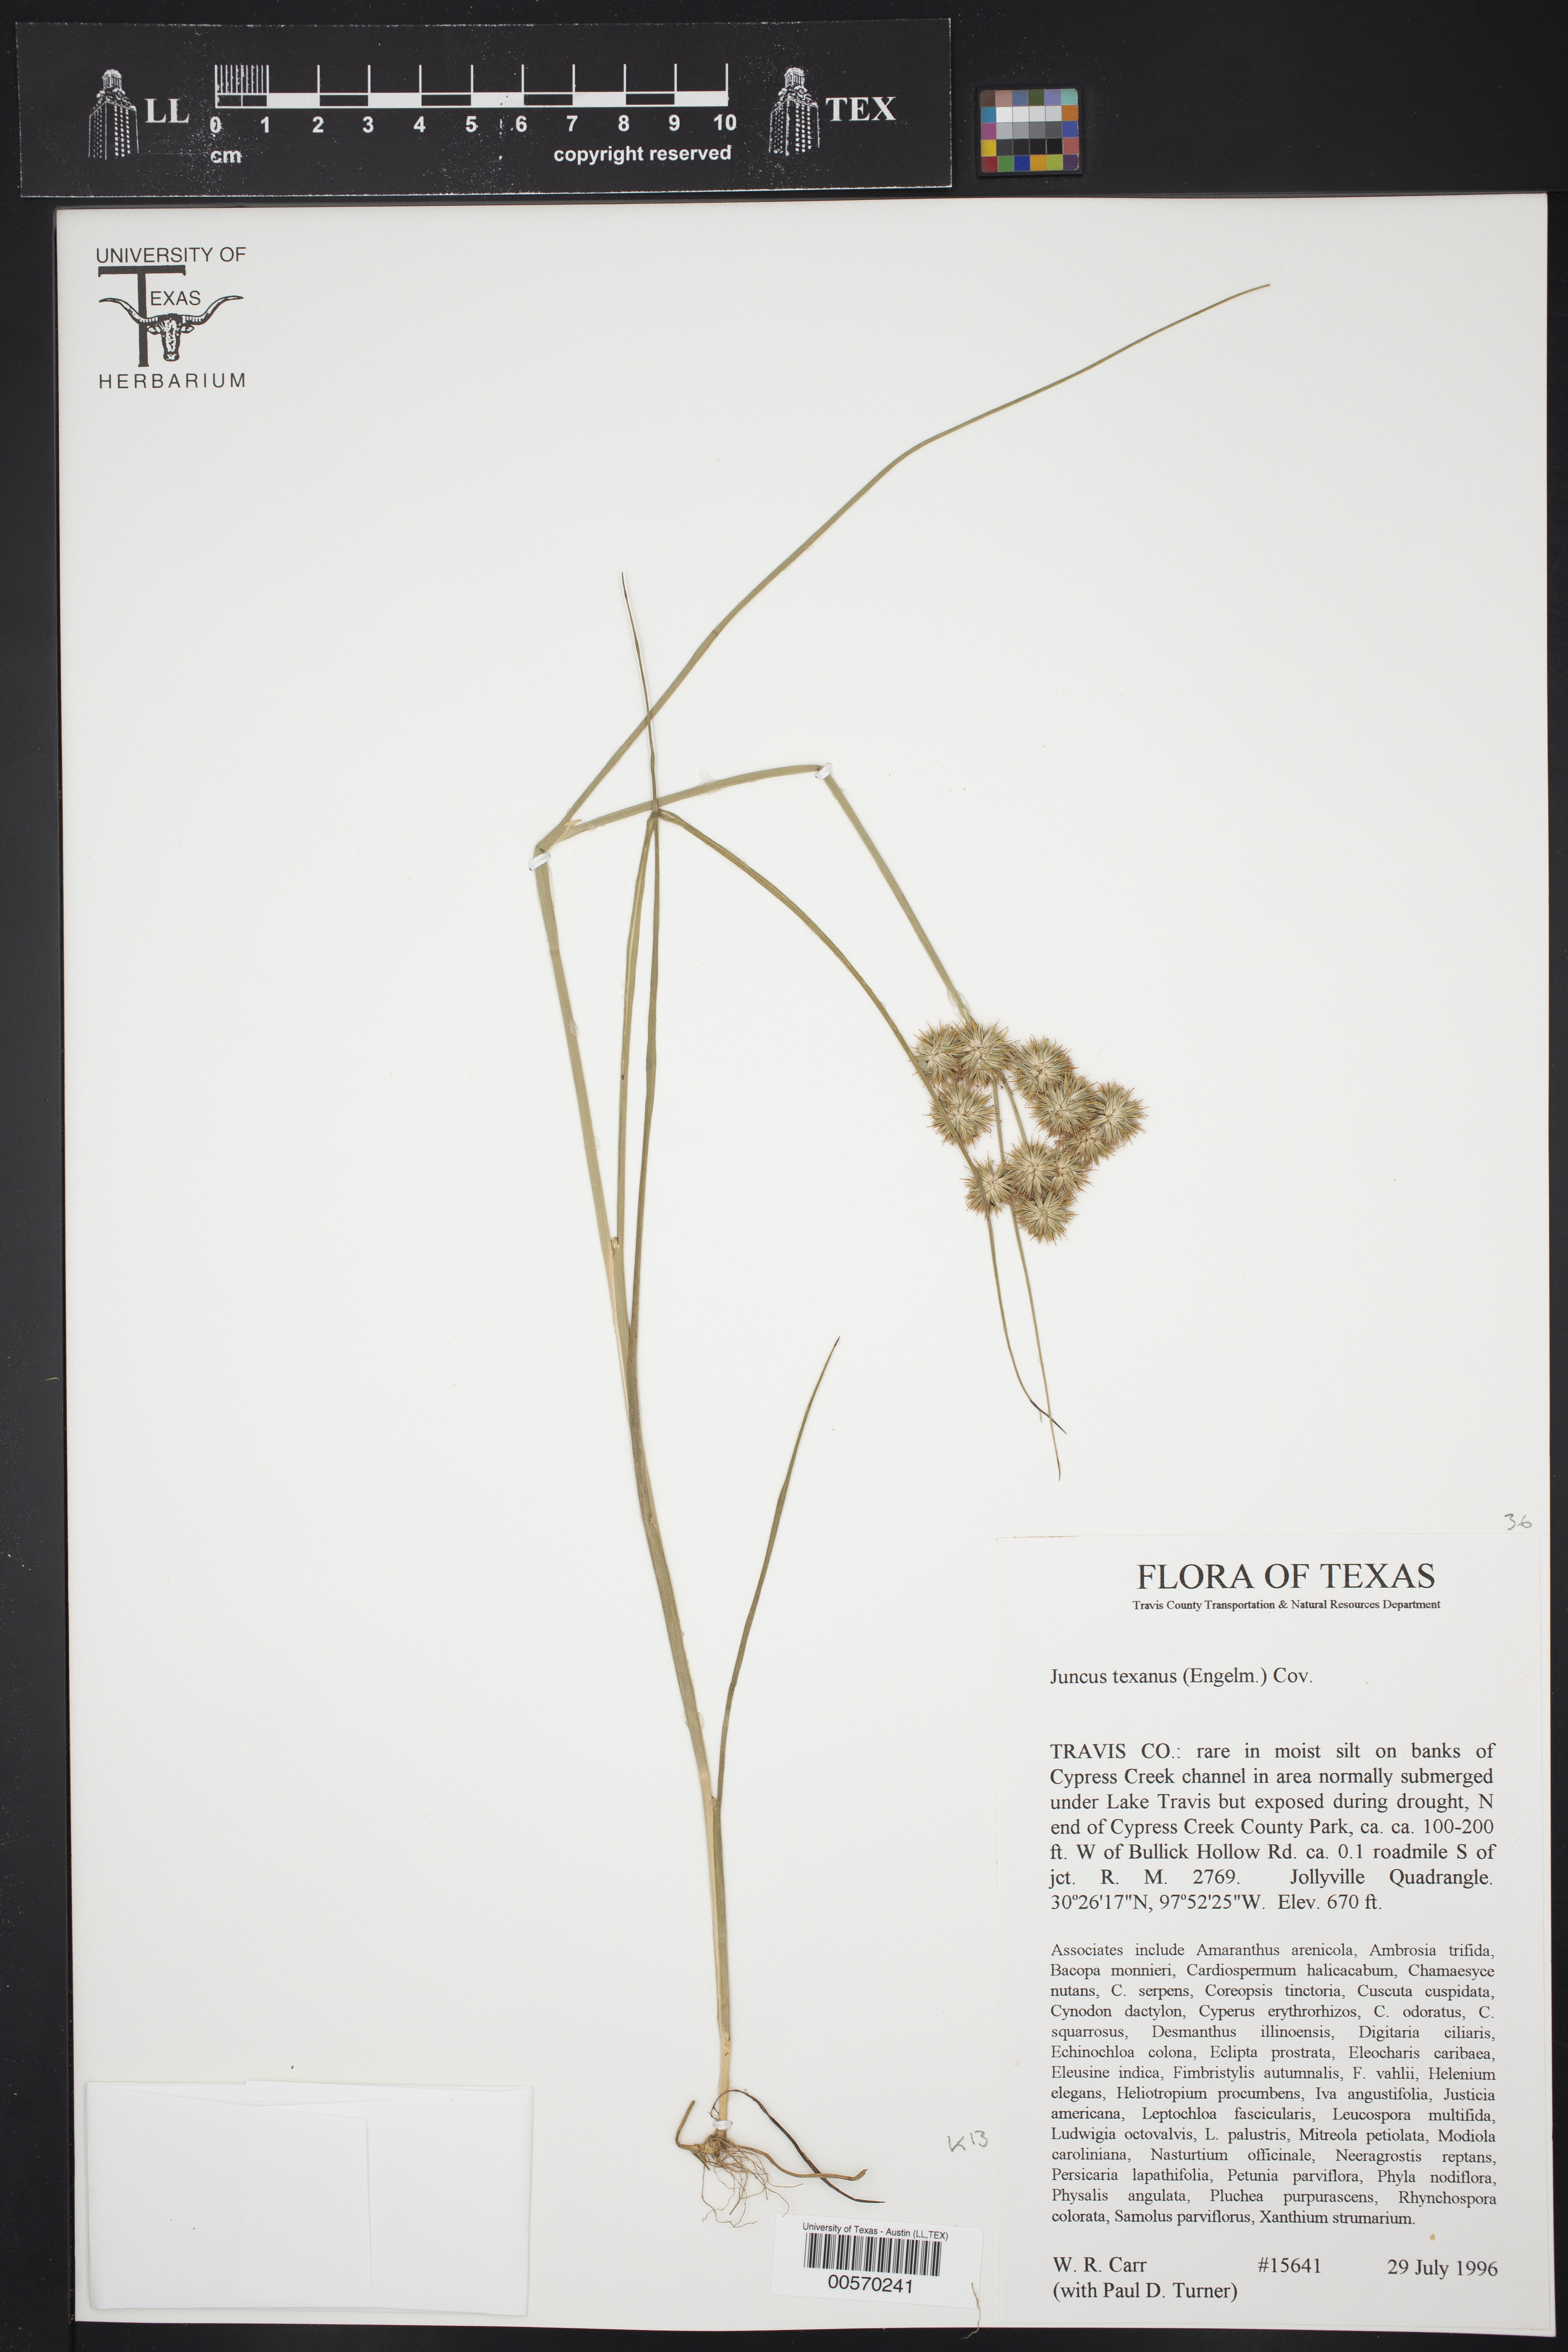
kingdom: Plantae
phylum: Tracheophyta
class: Liliopsida
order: Poales
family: Juncaceae
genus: Juncus
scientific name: Juncus texanus
